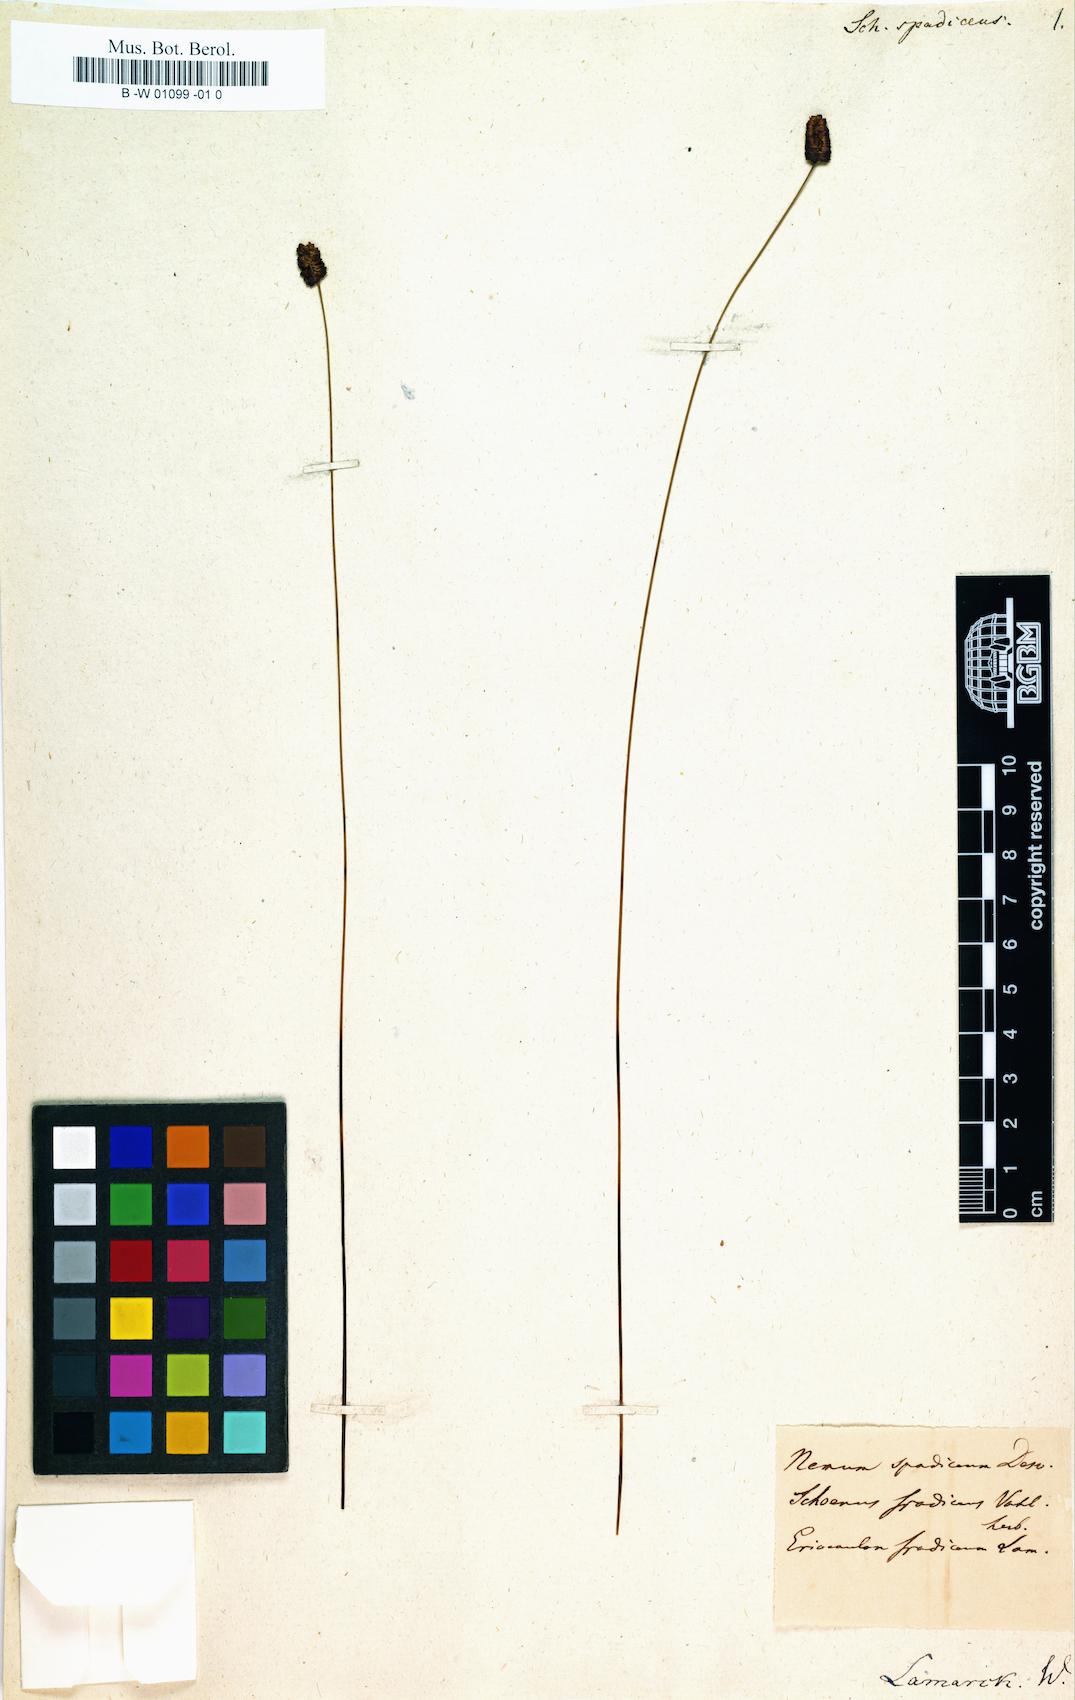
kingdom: Plantae
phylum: Tracheophyta
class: Liliopsida
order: Poales
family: Cyperaceae
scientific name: Cyperaceae
